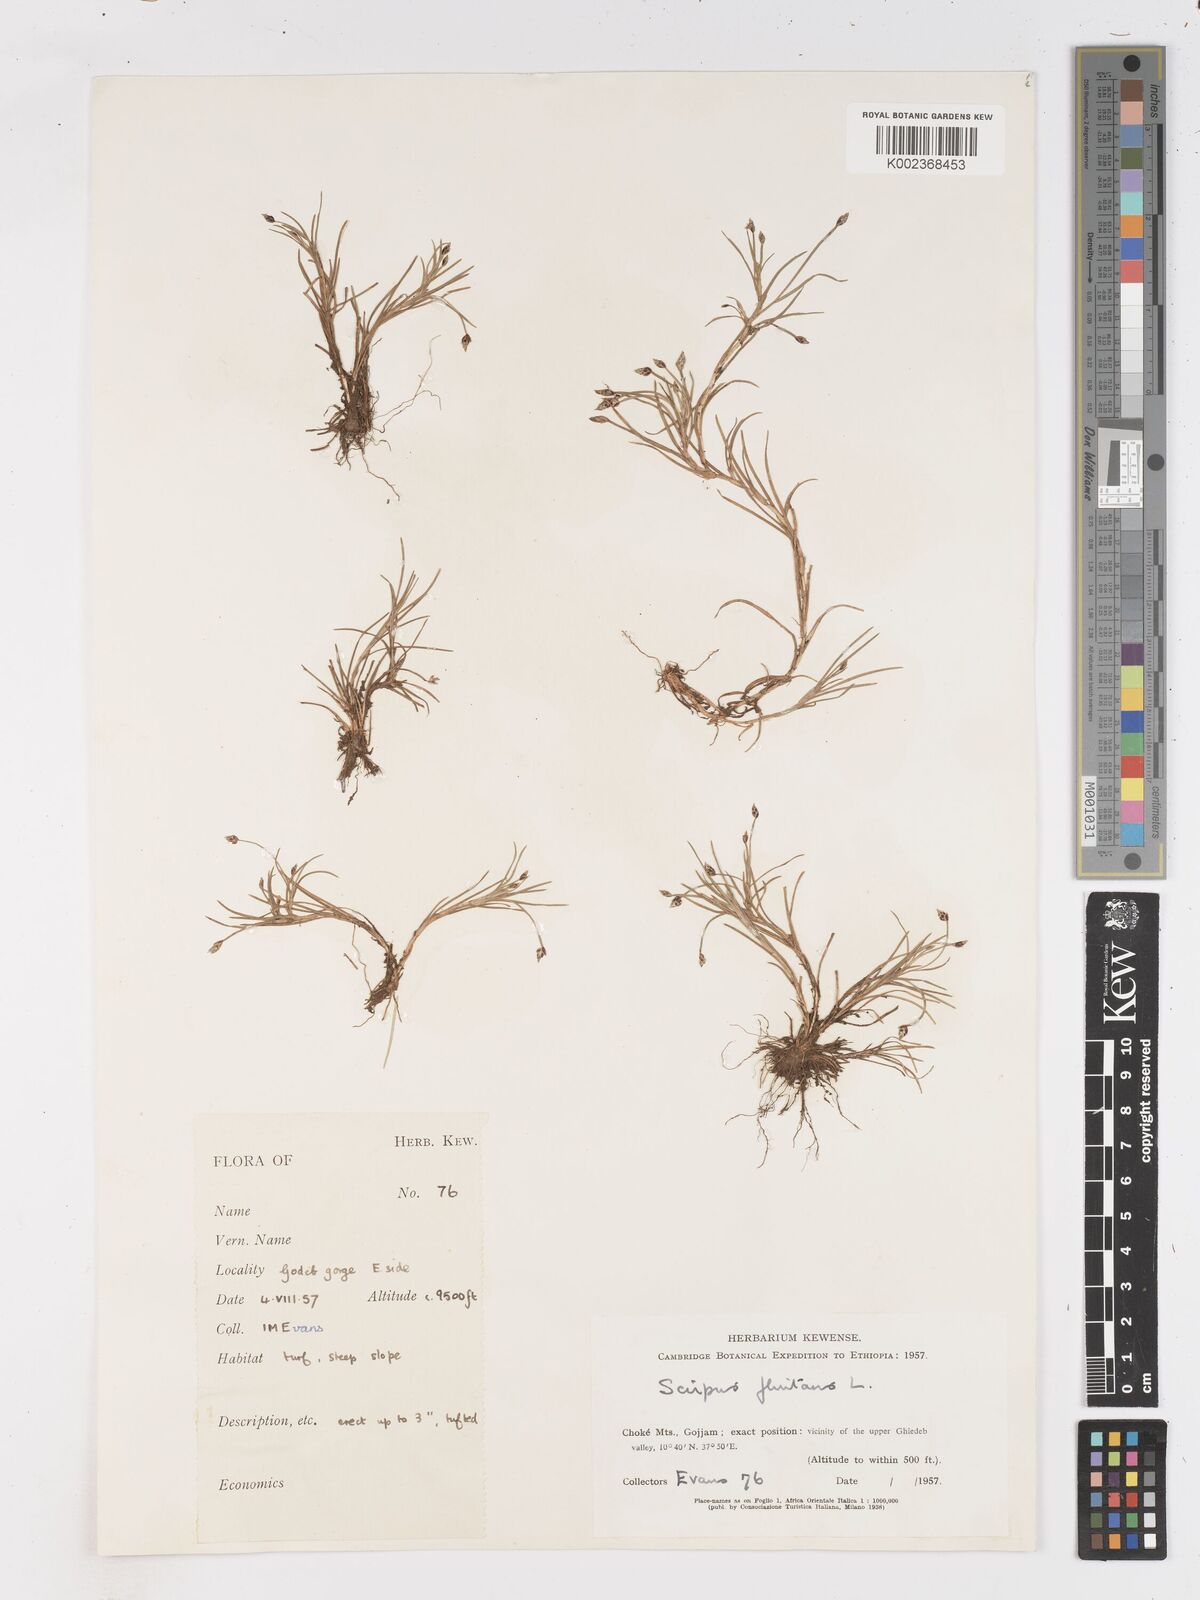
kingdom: Plantae
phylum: Tracheophyta
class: Liliopsida
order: Poales
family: Cyperaceae
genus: Isolepis
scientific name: Isolepis fluitans
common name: Floating club-rush
